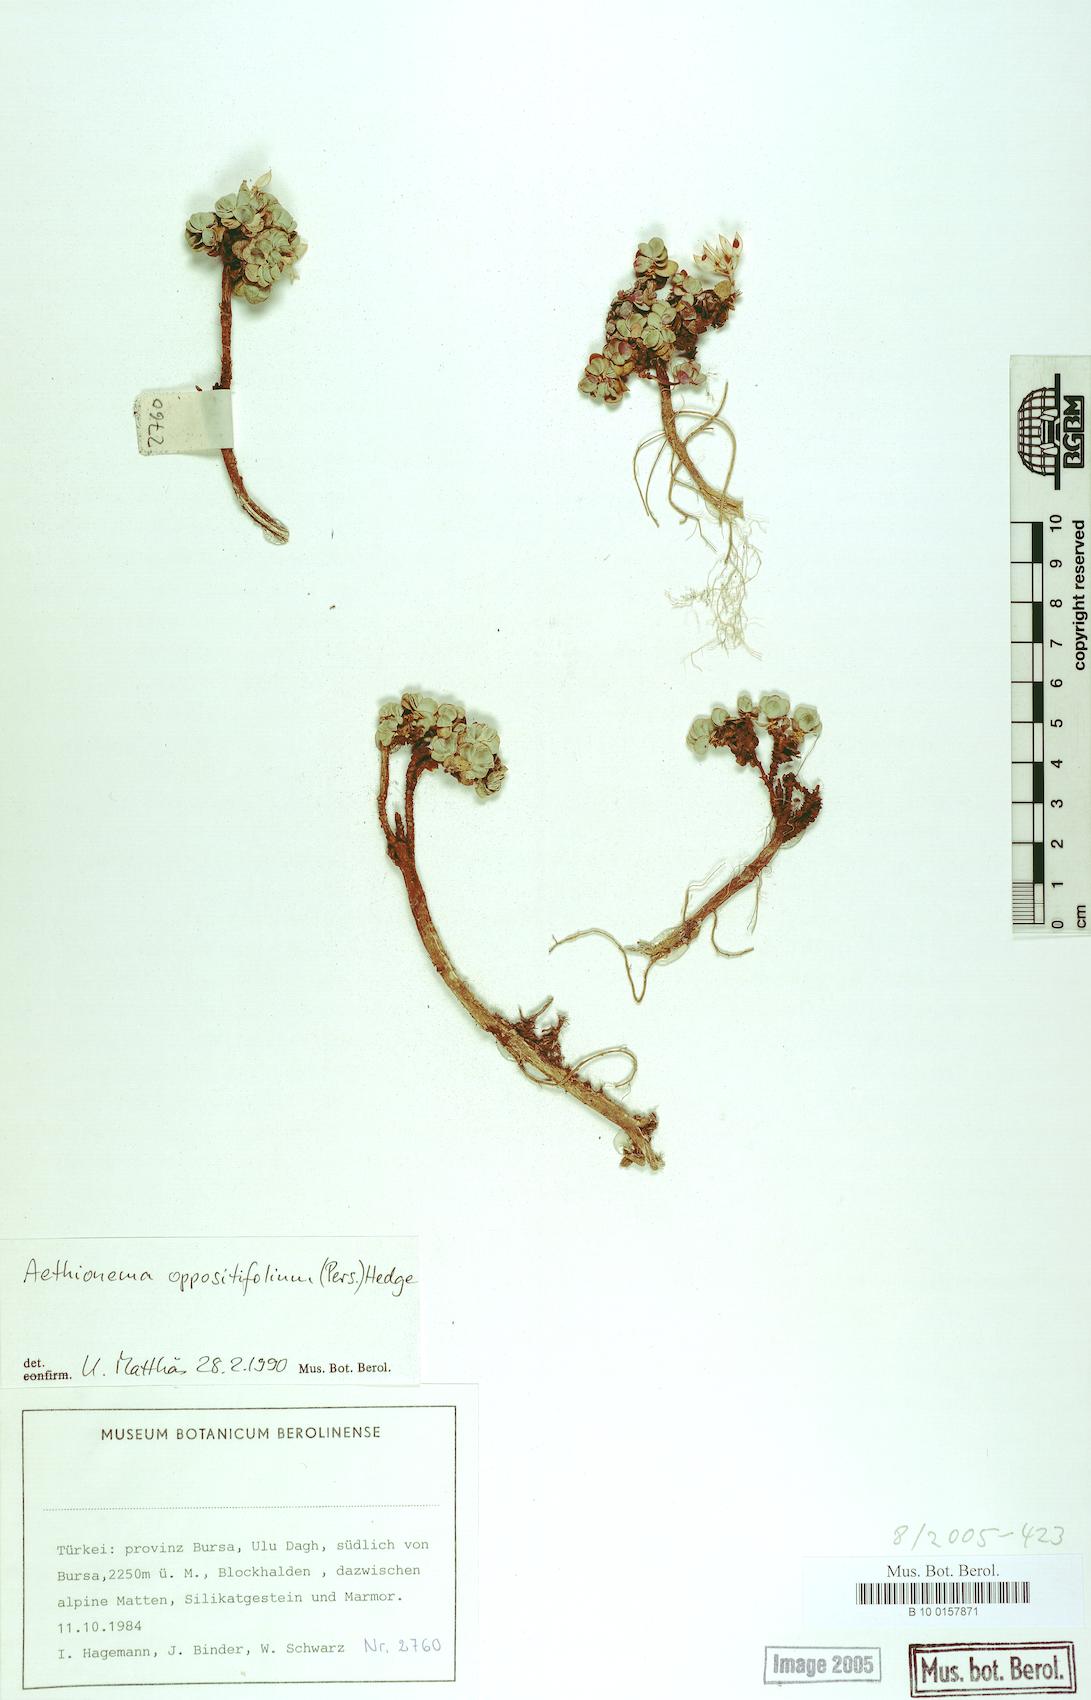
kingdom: Plantae
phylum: Tracheophyta
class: Magnoliopsida
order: Brassicales
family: Brassicaceae
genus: Noccaea
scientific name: Noccaea oppositifolia
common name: Twin-leaf stone-cress
